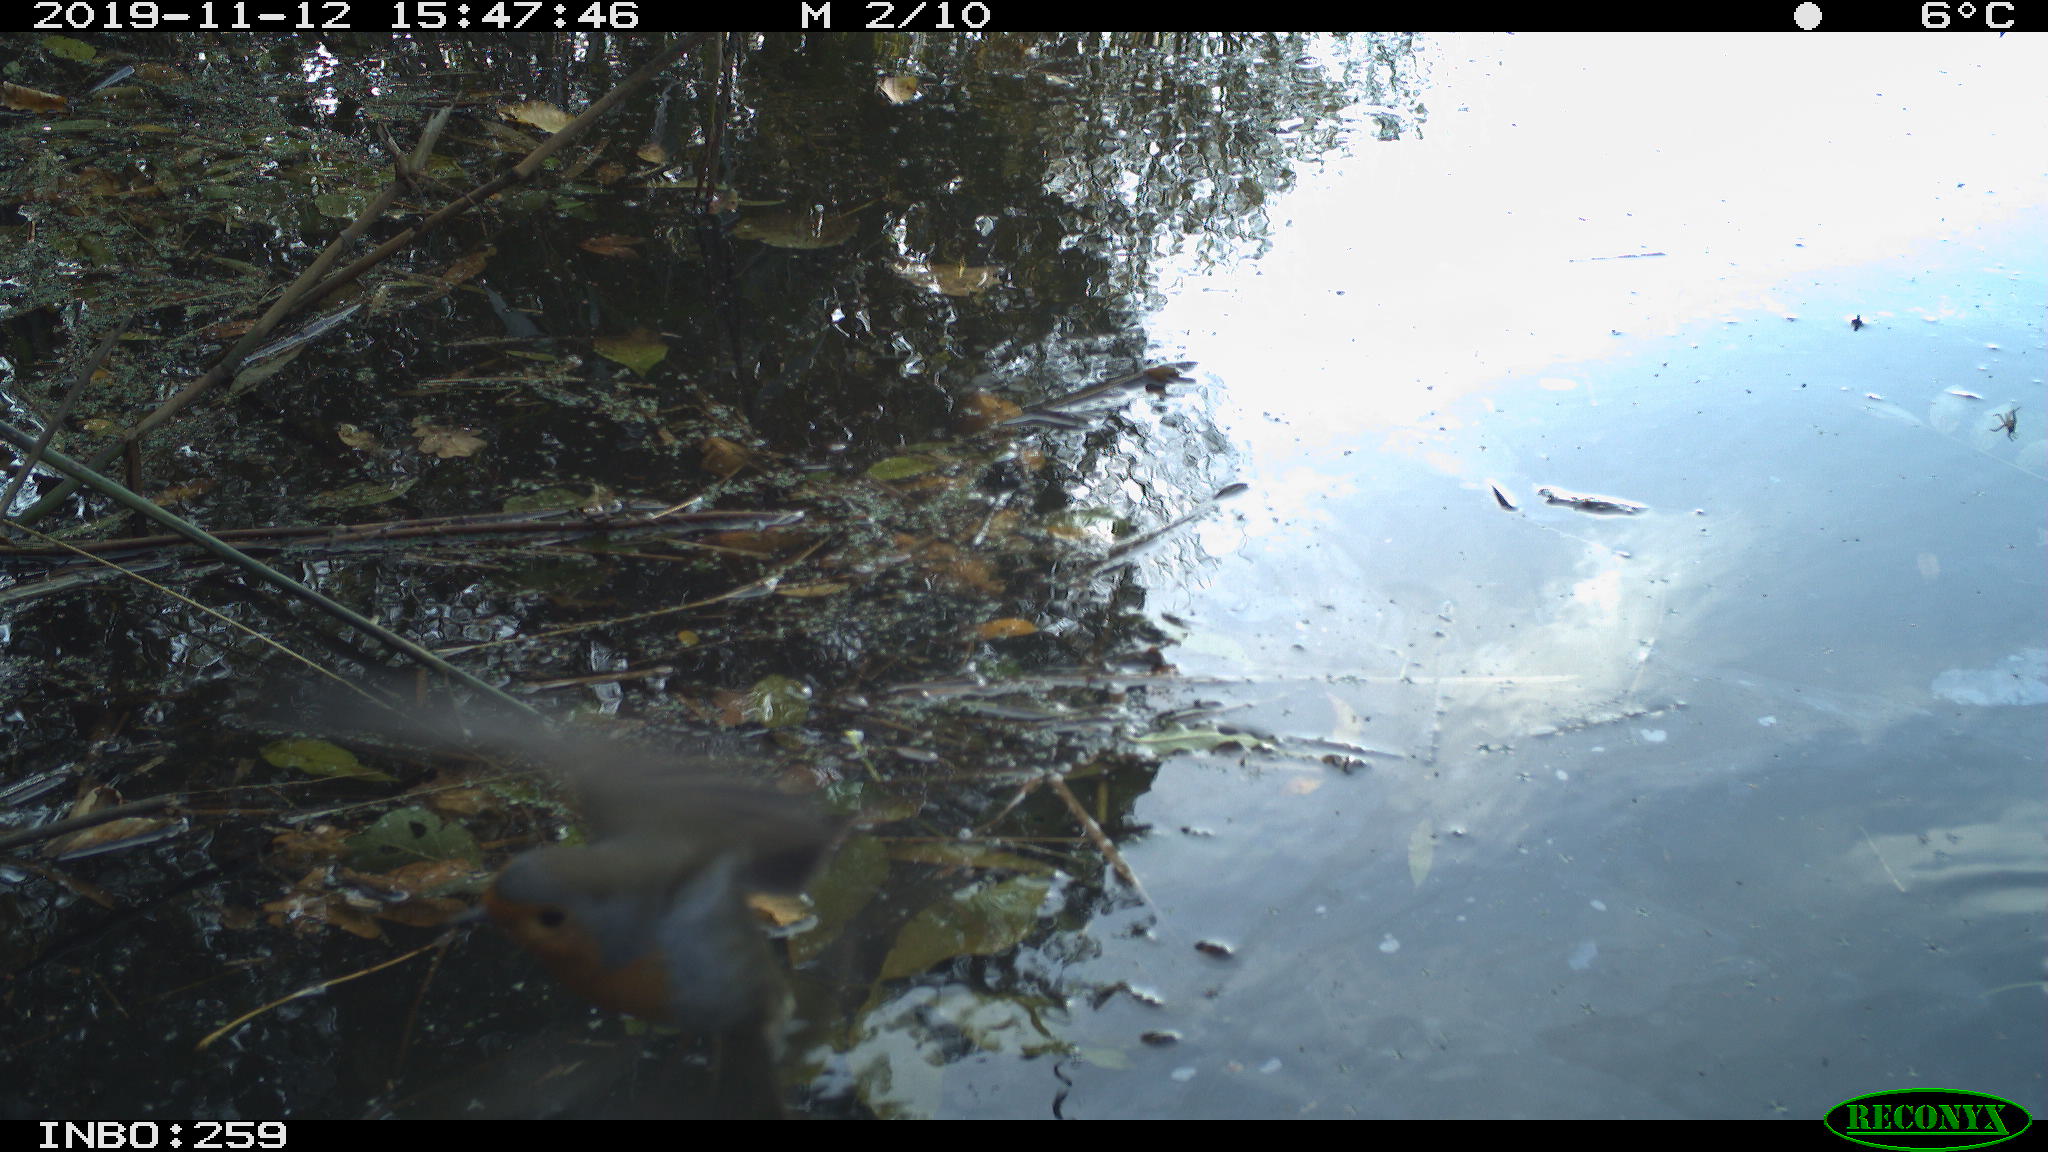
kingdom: Animalia
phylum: Chordata
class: Aves
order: Passeriformes
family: Muscicapidae
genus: Erithacus
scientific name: Erithacus rubecula
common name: European robin
